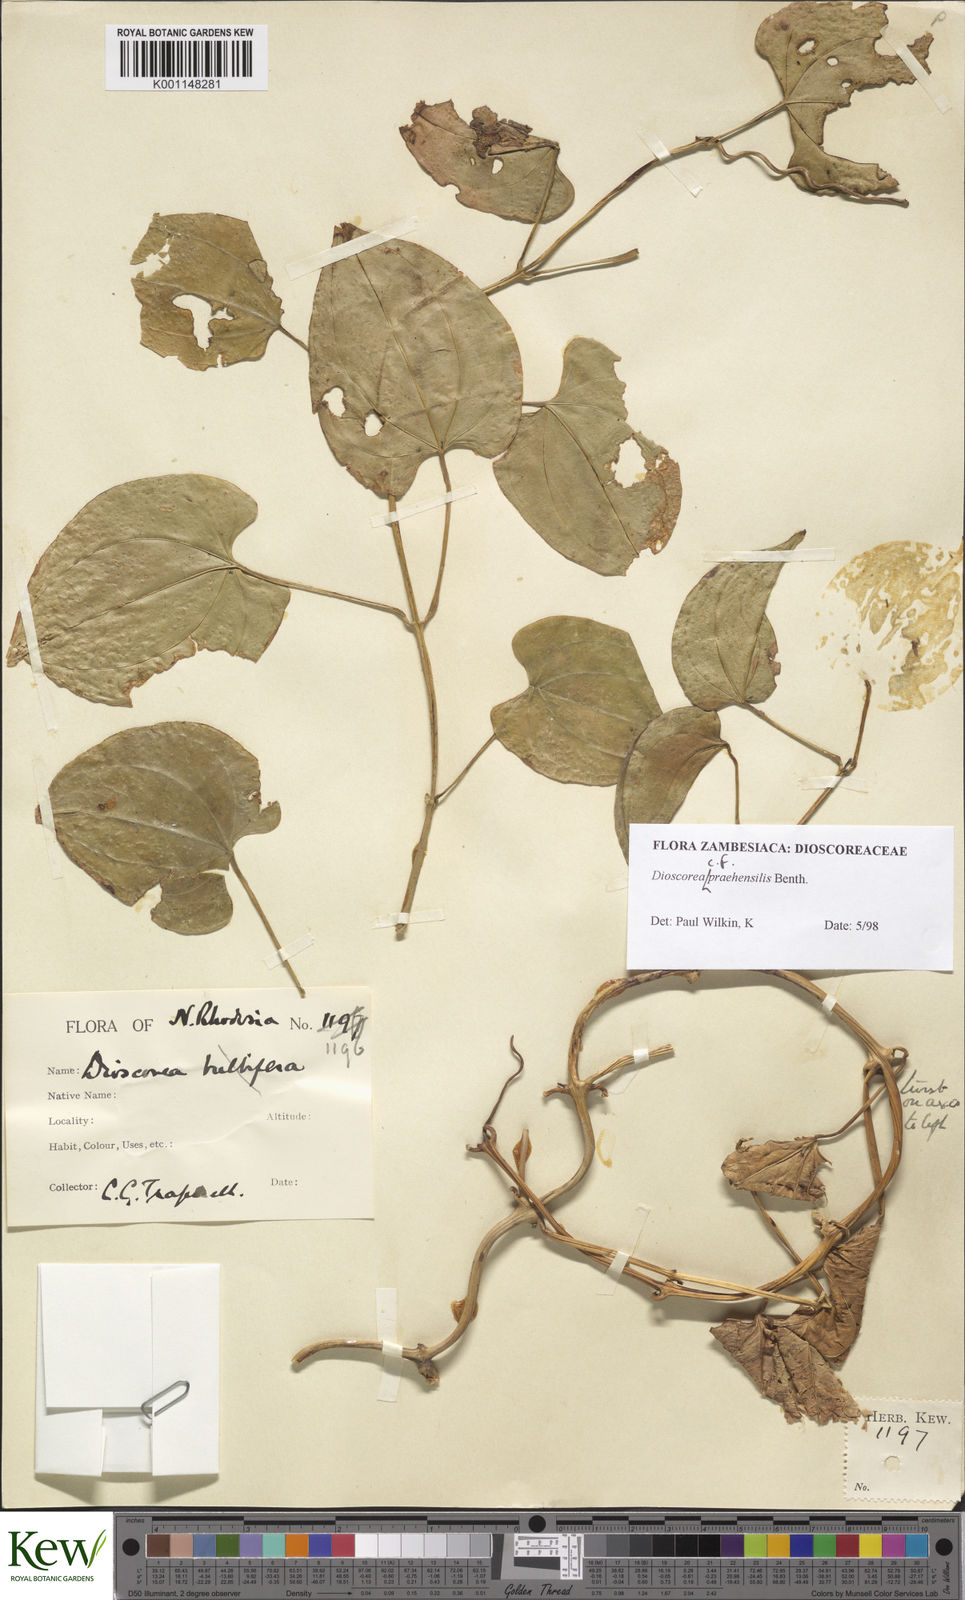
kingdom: Plantae
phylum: Tracheophyta
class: Liliopsida
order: Dioscoreales
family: Dioscoreaceae
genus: Dioscorea
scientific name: Dioscorea praehensilis
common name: Bush yam
